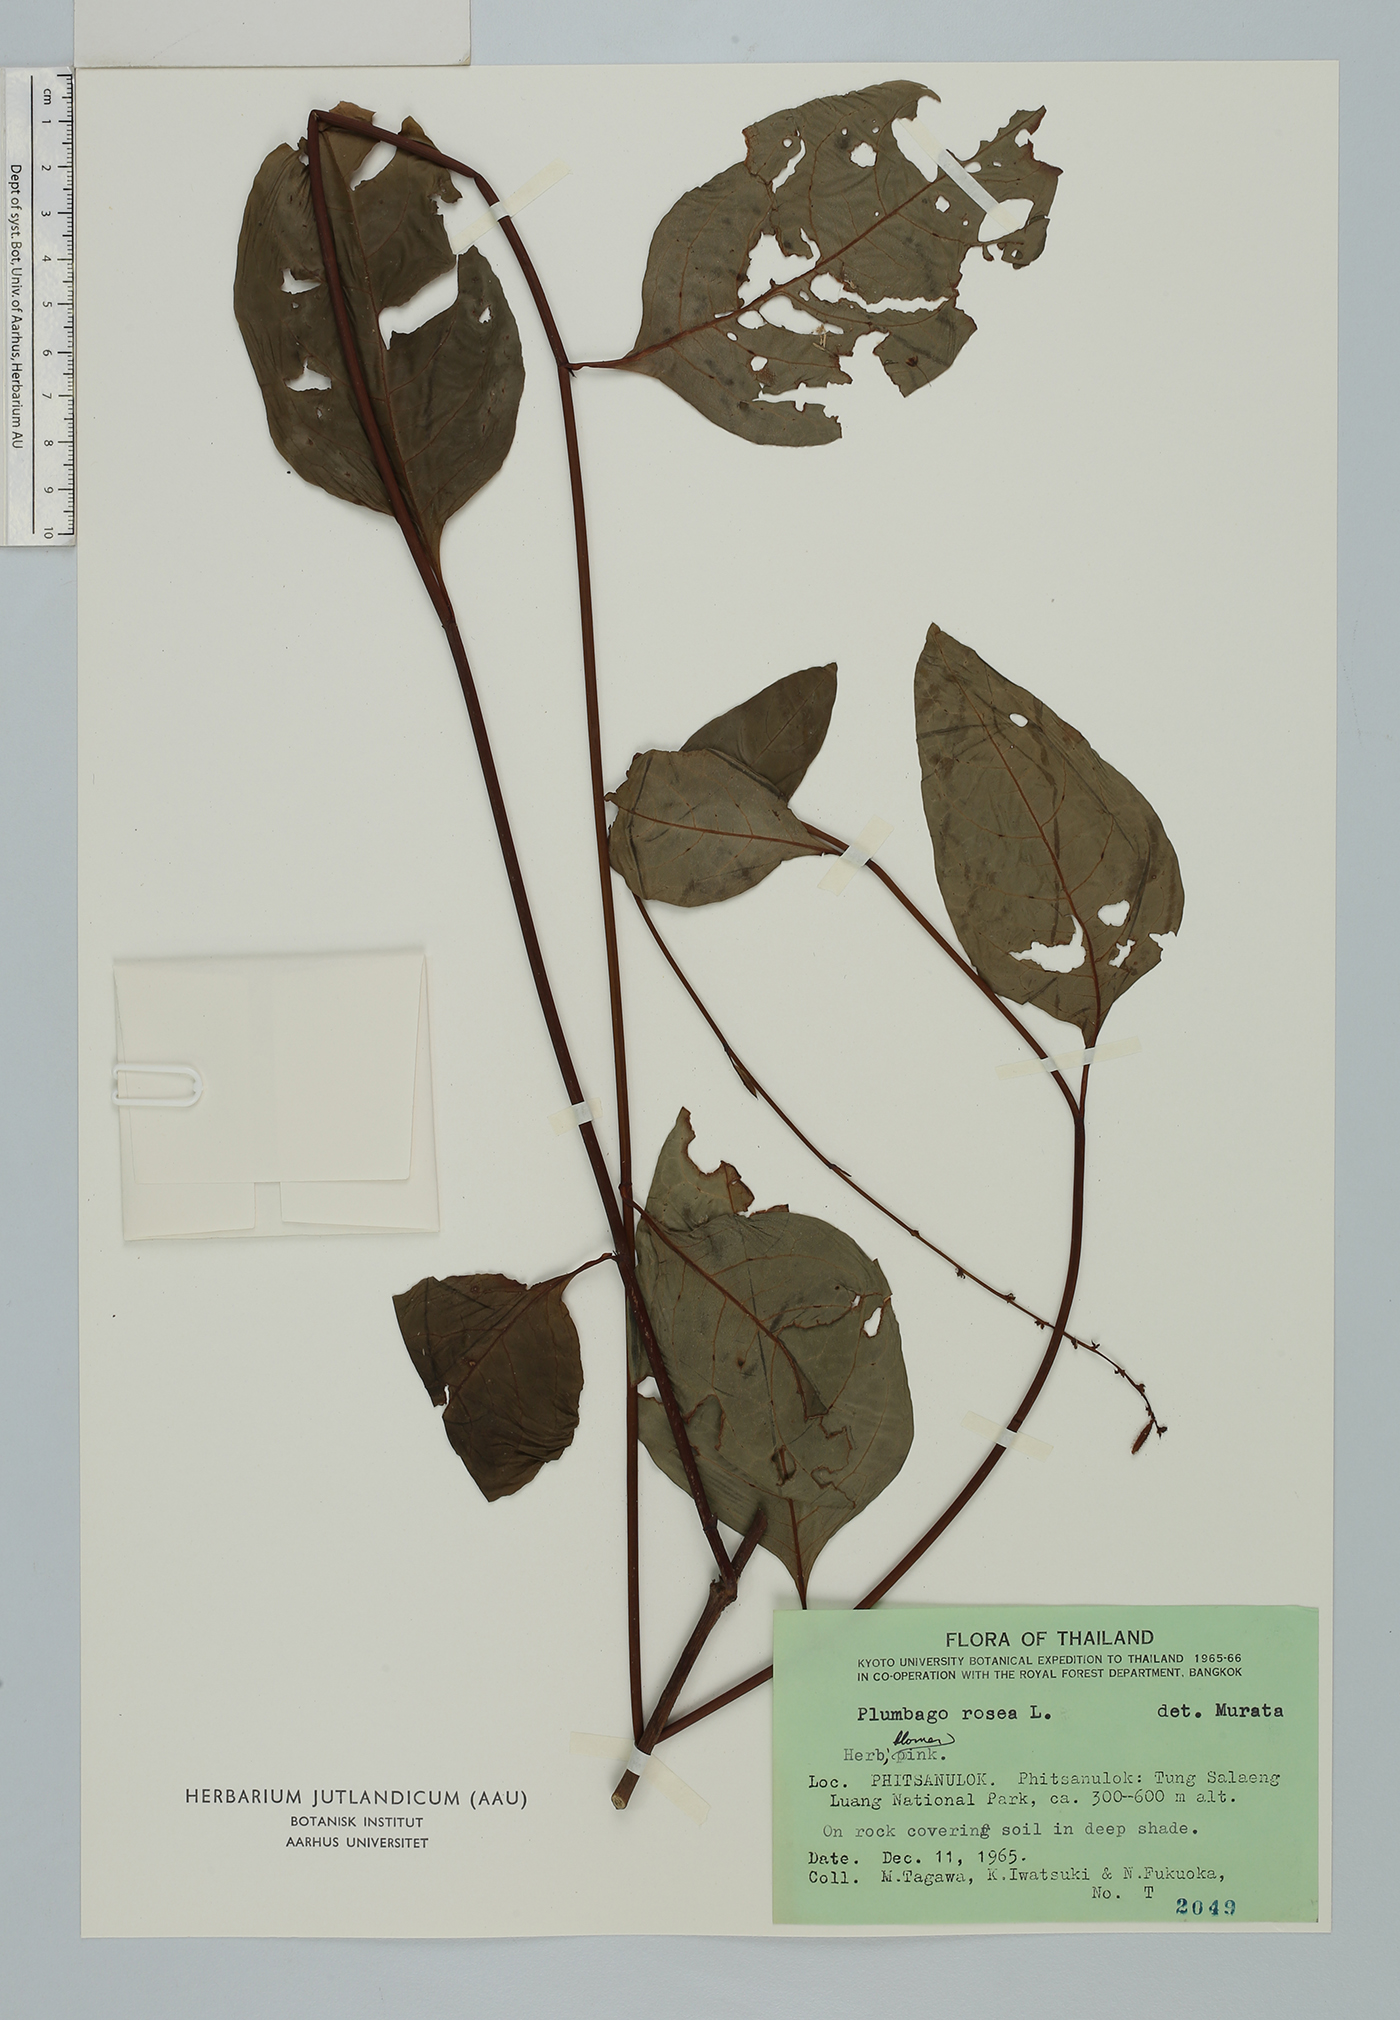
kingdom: Plantae
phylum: Tracheophyta
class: Magnoliopsida
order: Caryophyllales
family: Plumbaginaceae
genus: Plumbago
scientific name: Plumbago indica
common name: Indian leadwort
